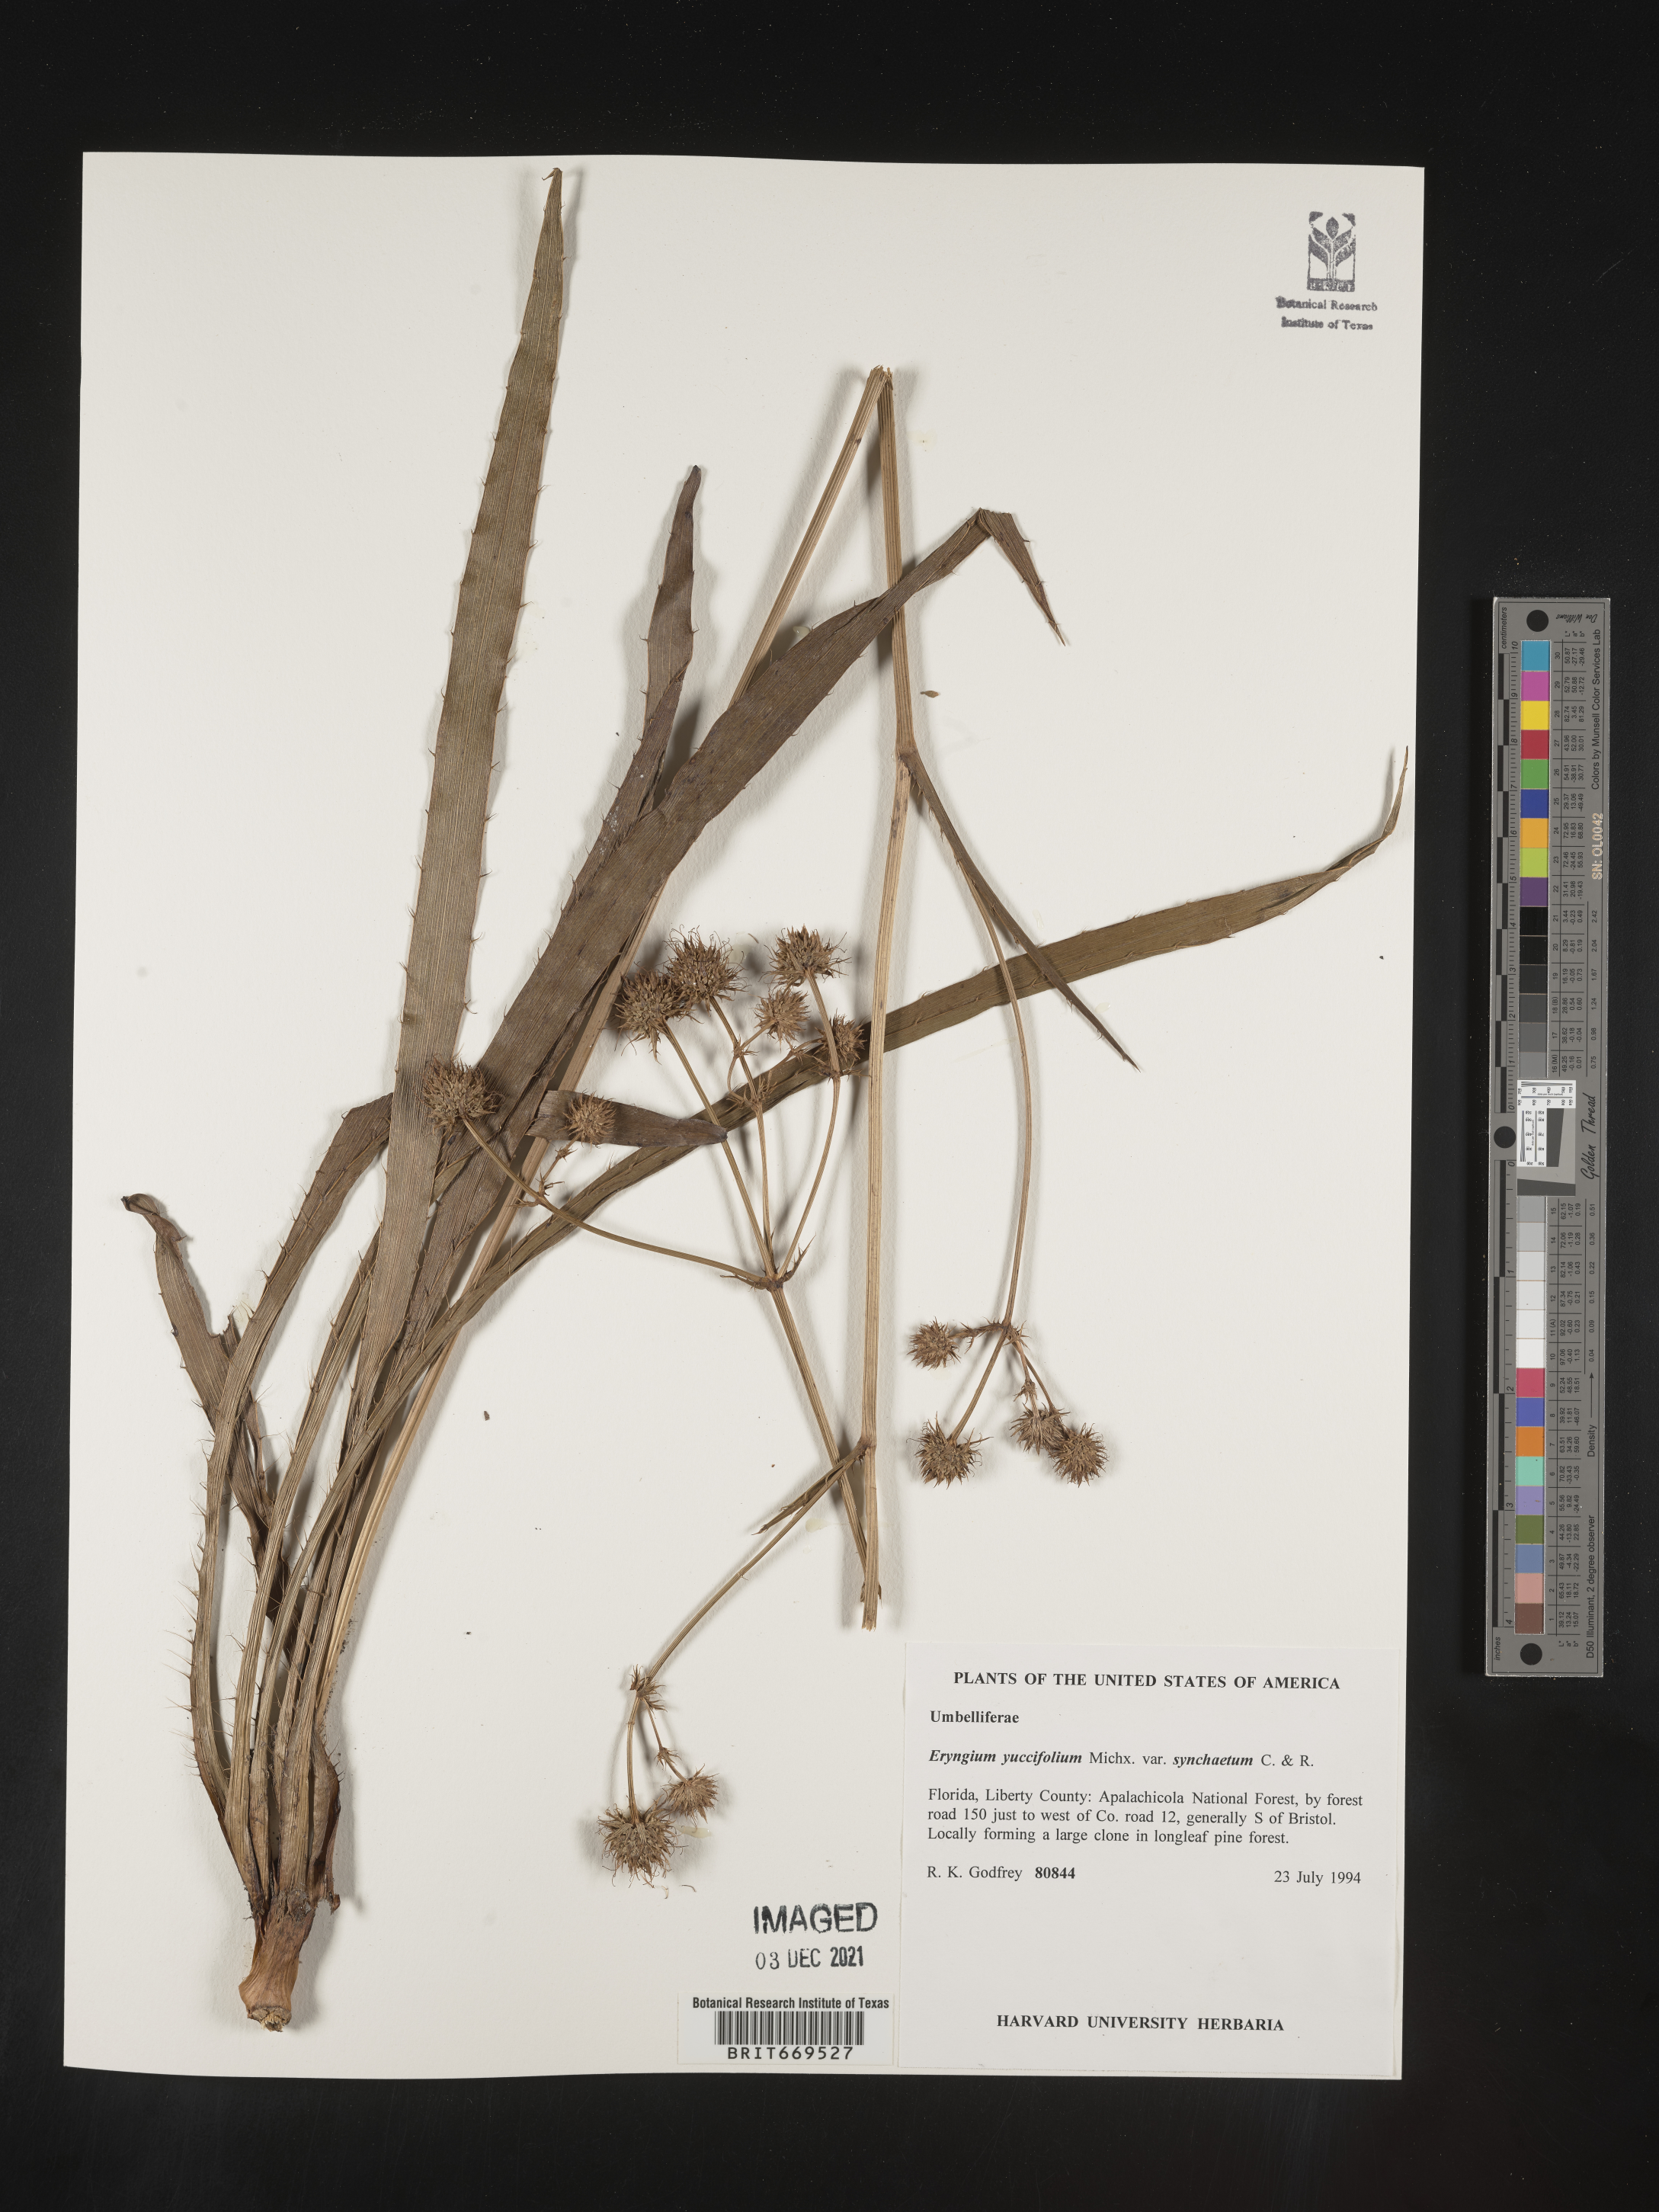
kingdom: Plantae
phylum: Tracheophyta
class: Magnoliopsida
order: Apiales
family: Apiaceae
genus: Eryngium
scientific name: Eryngium yuccifolium
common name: Button eryngo
